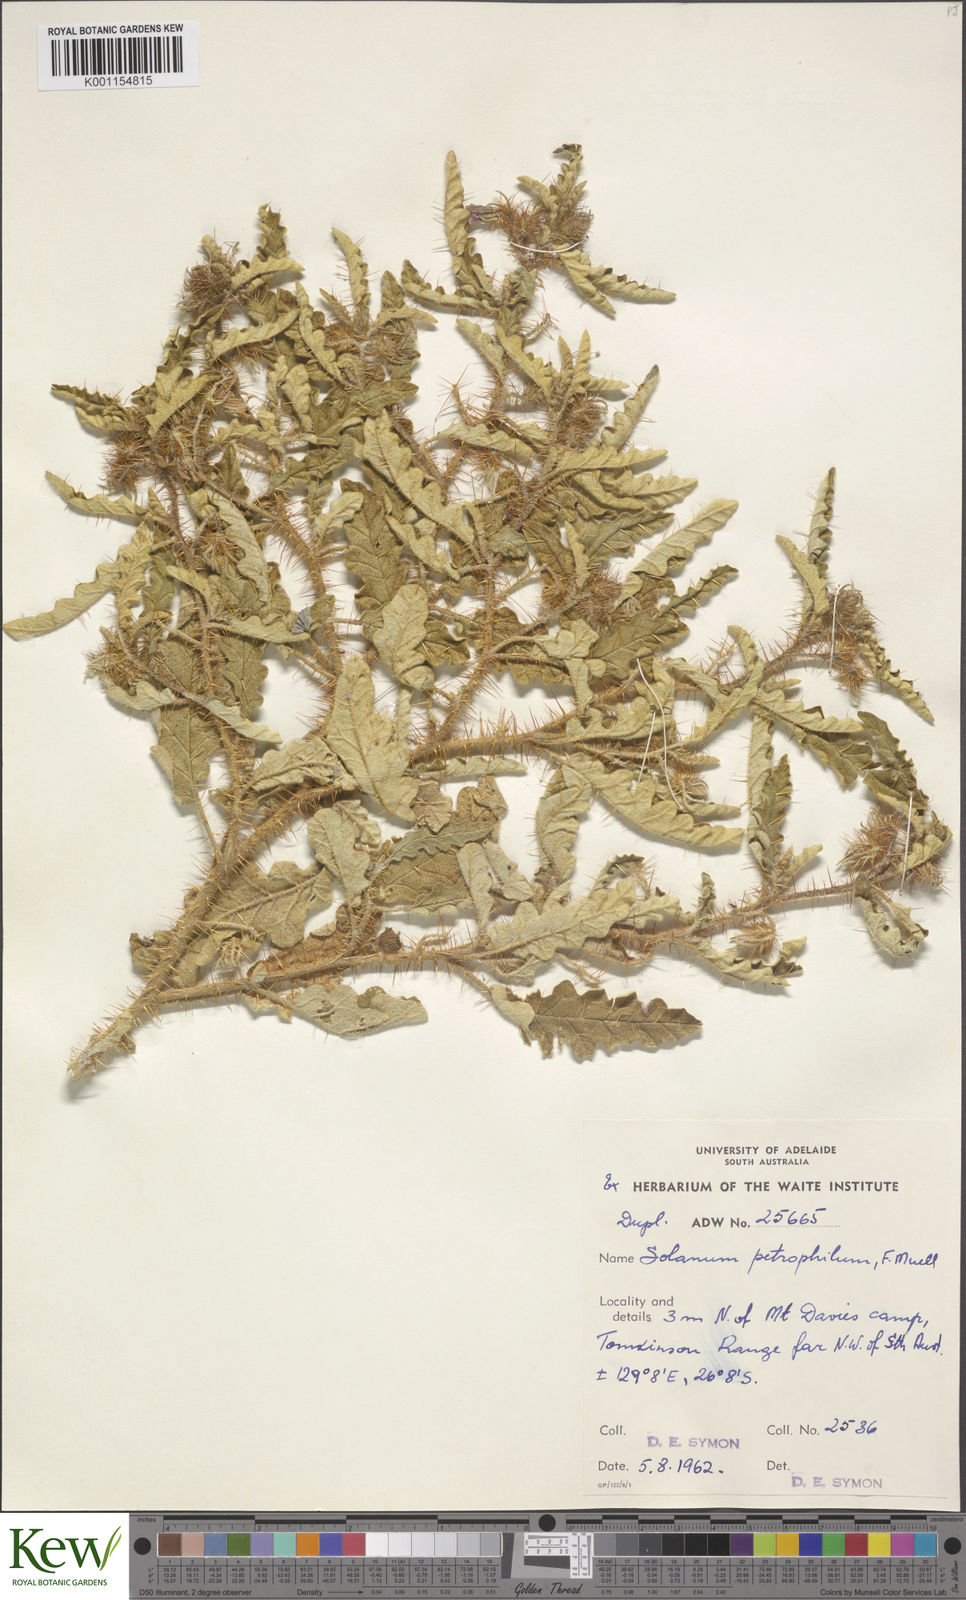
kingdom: Plantae
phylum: Tracheophyta
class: Magnoliopsida
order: Solanales
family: Solanaceae
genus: Solanum
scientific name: Solanum petrophilum
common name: Rock nightshade
